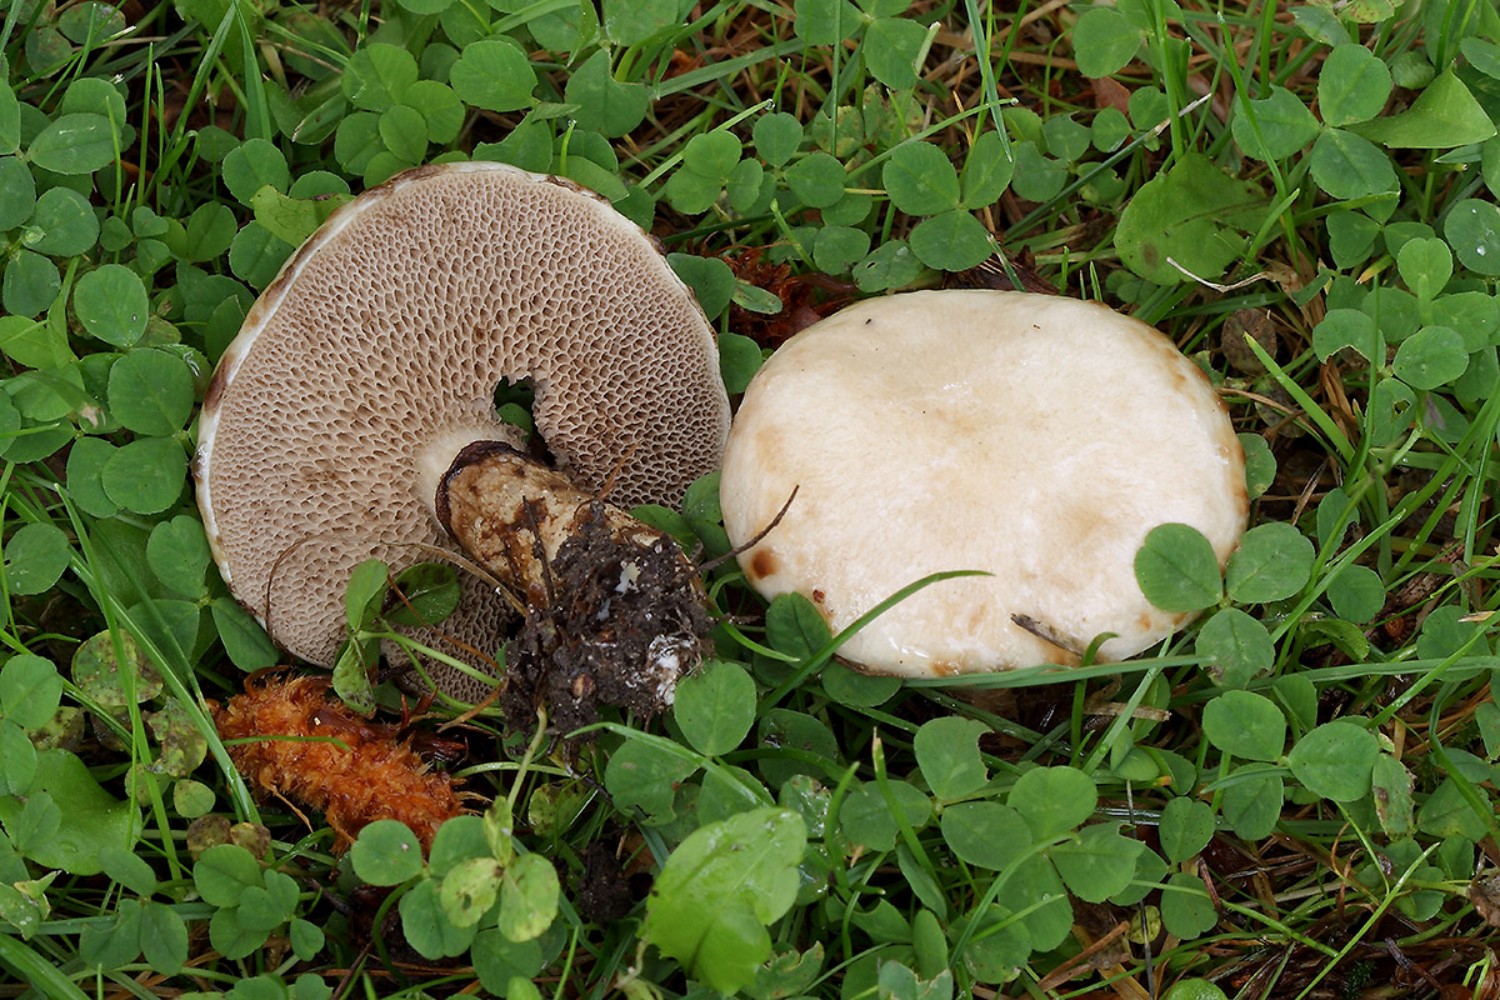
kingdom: Fungi
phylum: Basidiomycota
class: Agaricomycetes
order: Boletales
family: Suillaceae
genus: Suillus
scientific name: Suillus viscidus
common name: olivengrå slimrørhat
